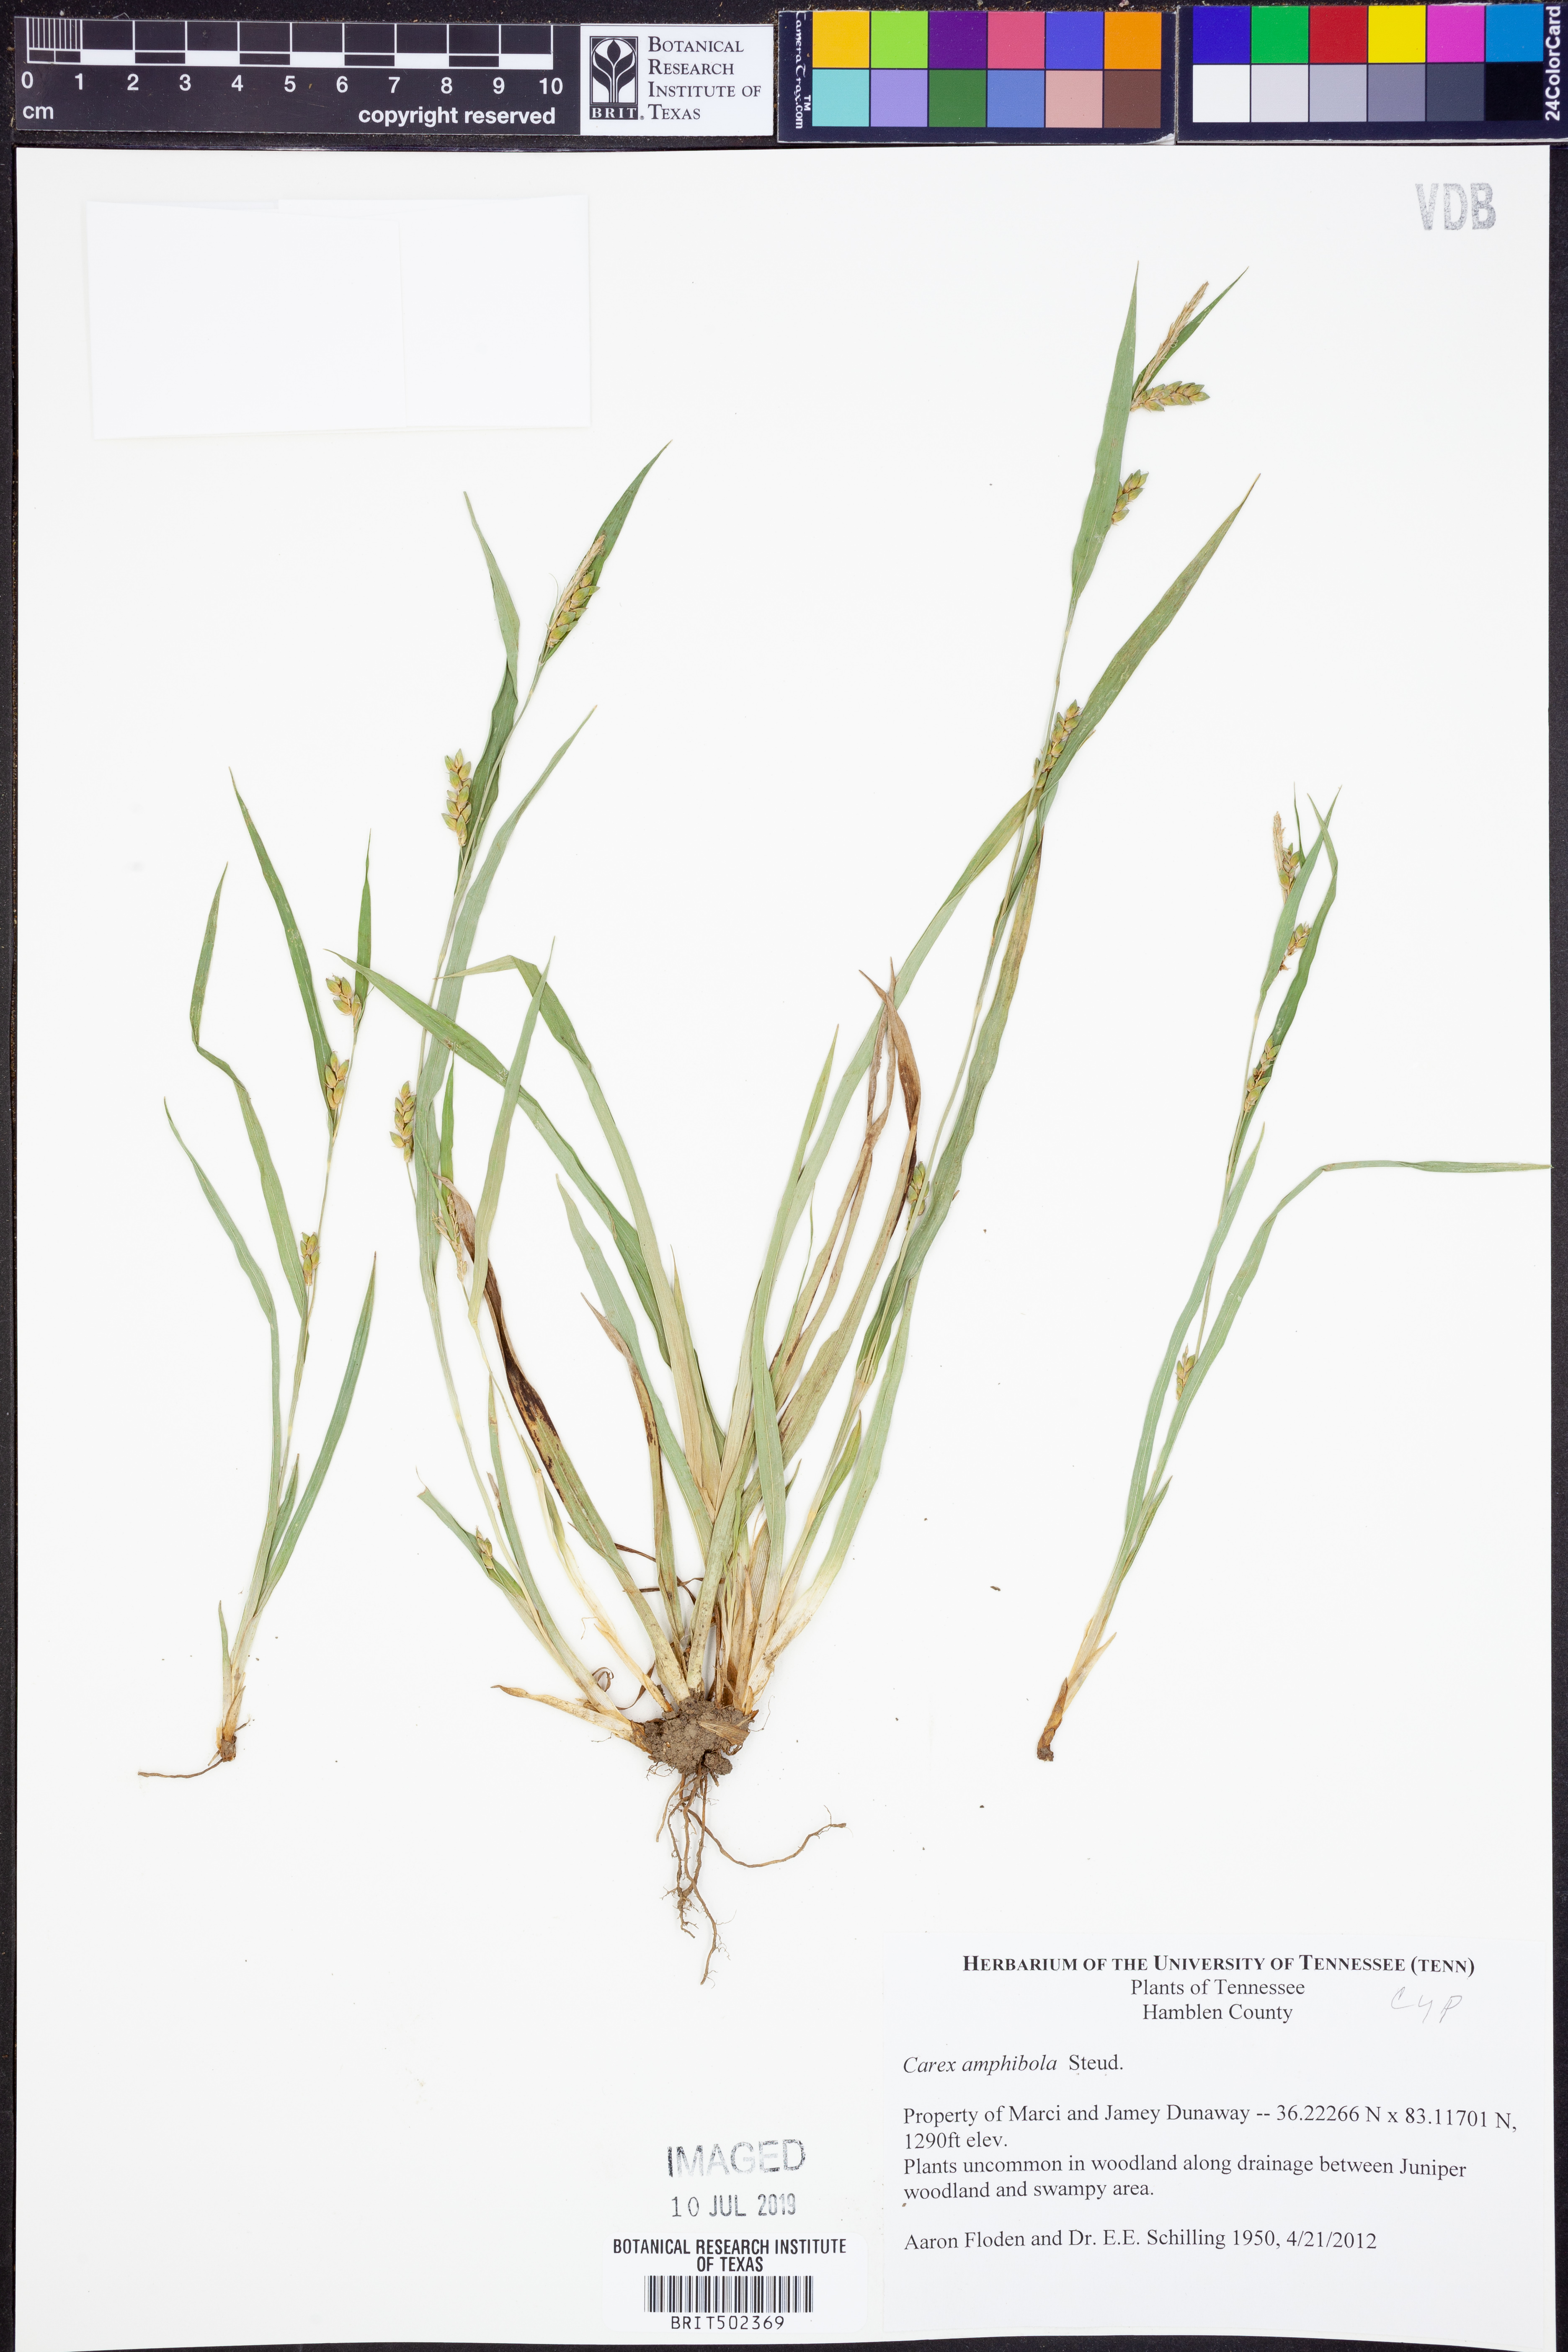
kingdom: Plantae
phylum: Tracheophyta
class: Liliopsida
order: Poales
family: Cyperaceae
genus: Carex
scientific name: Carex amphibola
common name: Amphibious sedge
